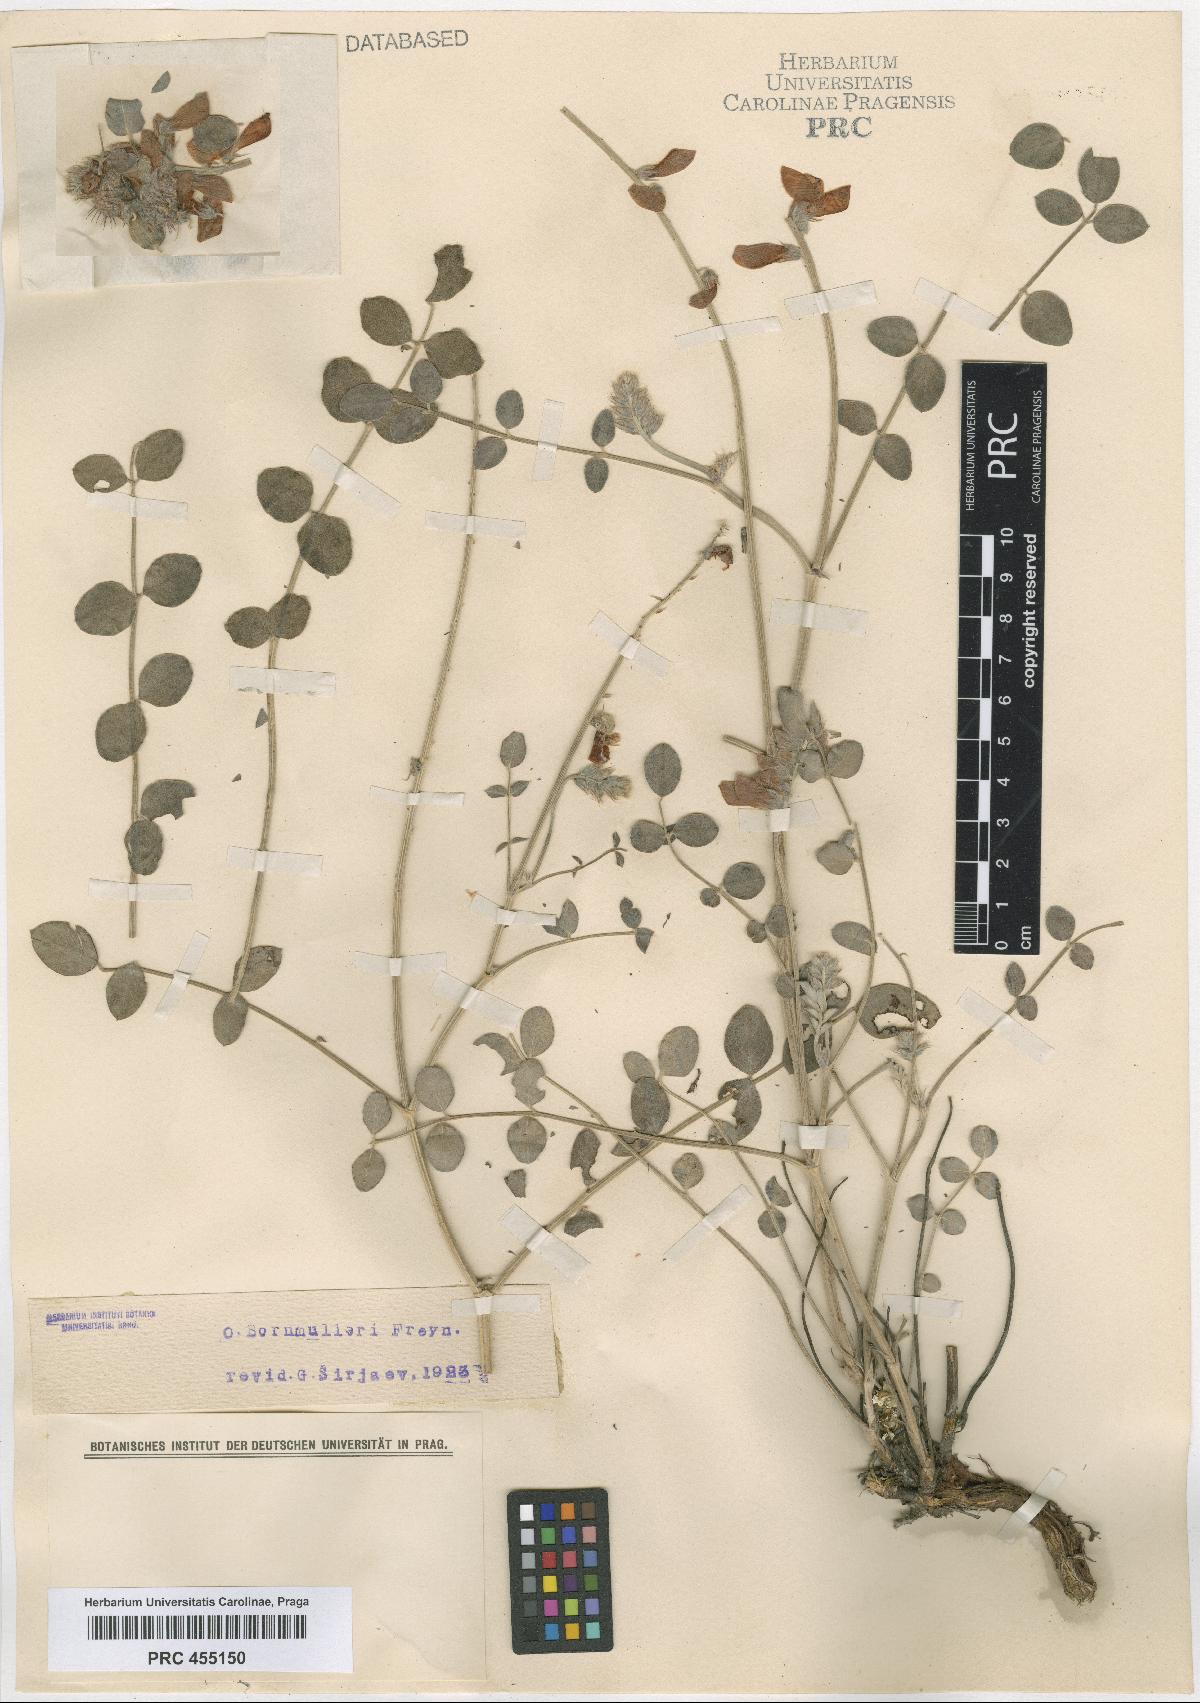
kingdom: Plantae
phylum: Tracheophyta
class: Magnoliopsida
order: Fabales
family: Fabaceae
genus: Onobrychis
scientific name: Onobrychis bornmuelleri
